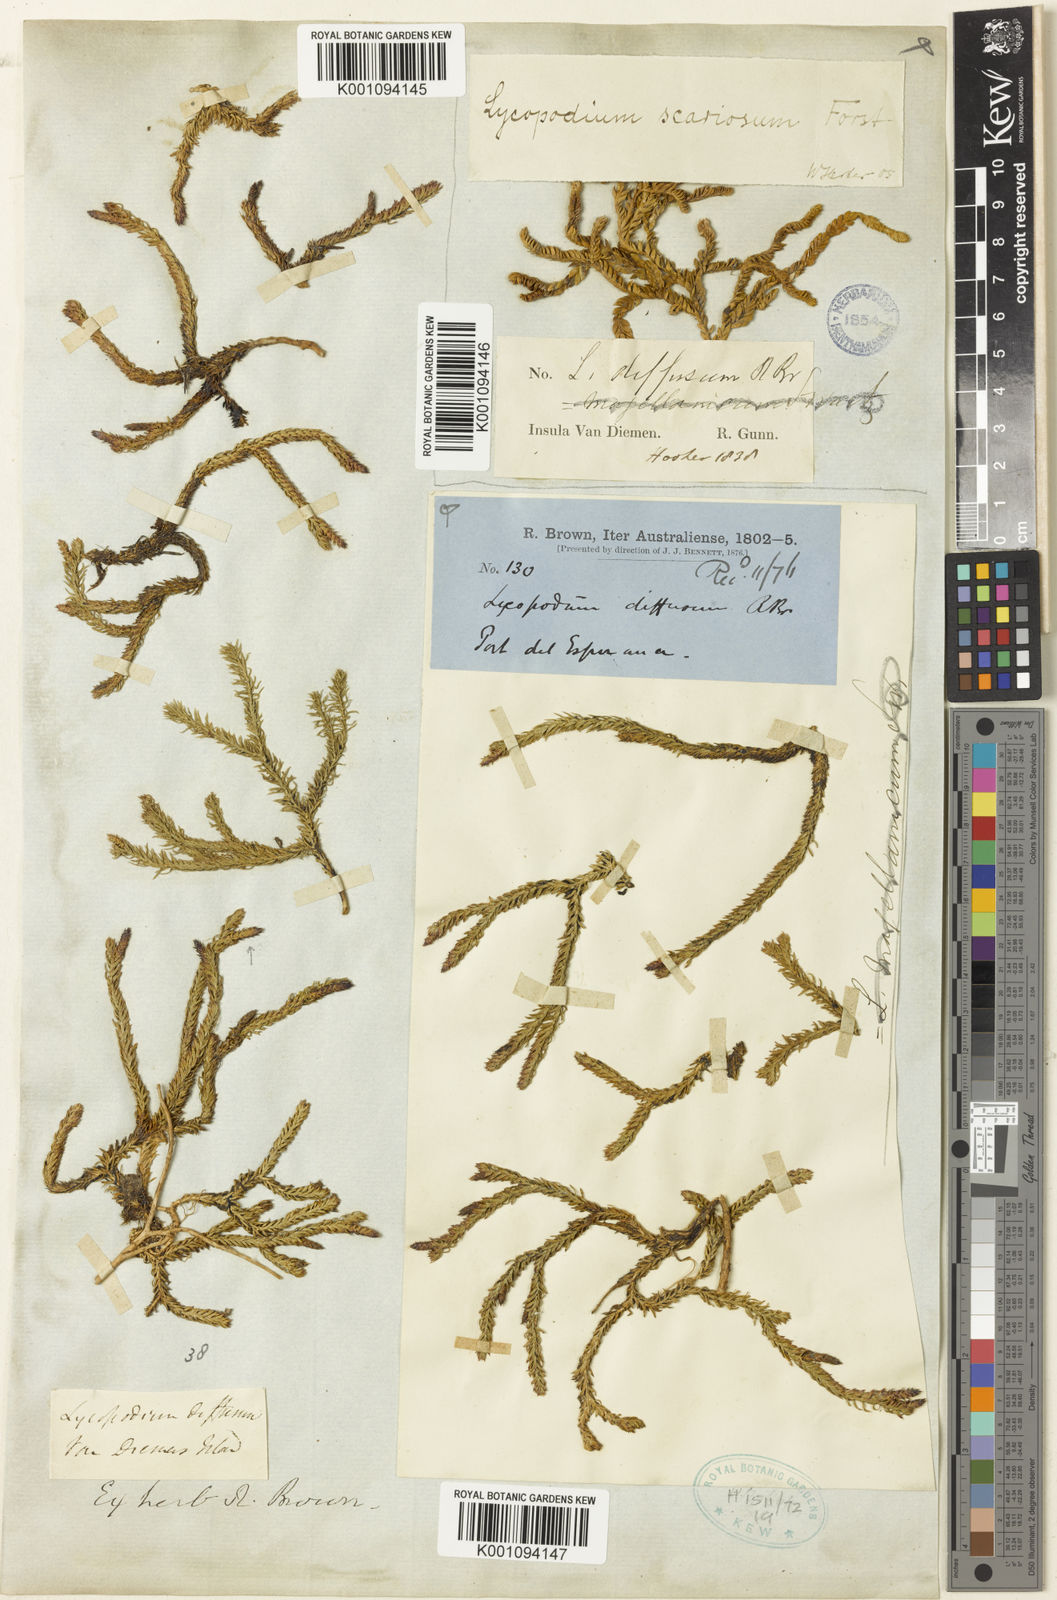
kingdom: Plantae
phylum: Tracheophyta
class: Lycopodiopsida
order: Lycopodiales
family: Lycopodiaceae
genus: Lateristachys
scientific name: Lateristachys diffusa
